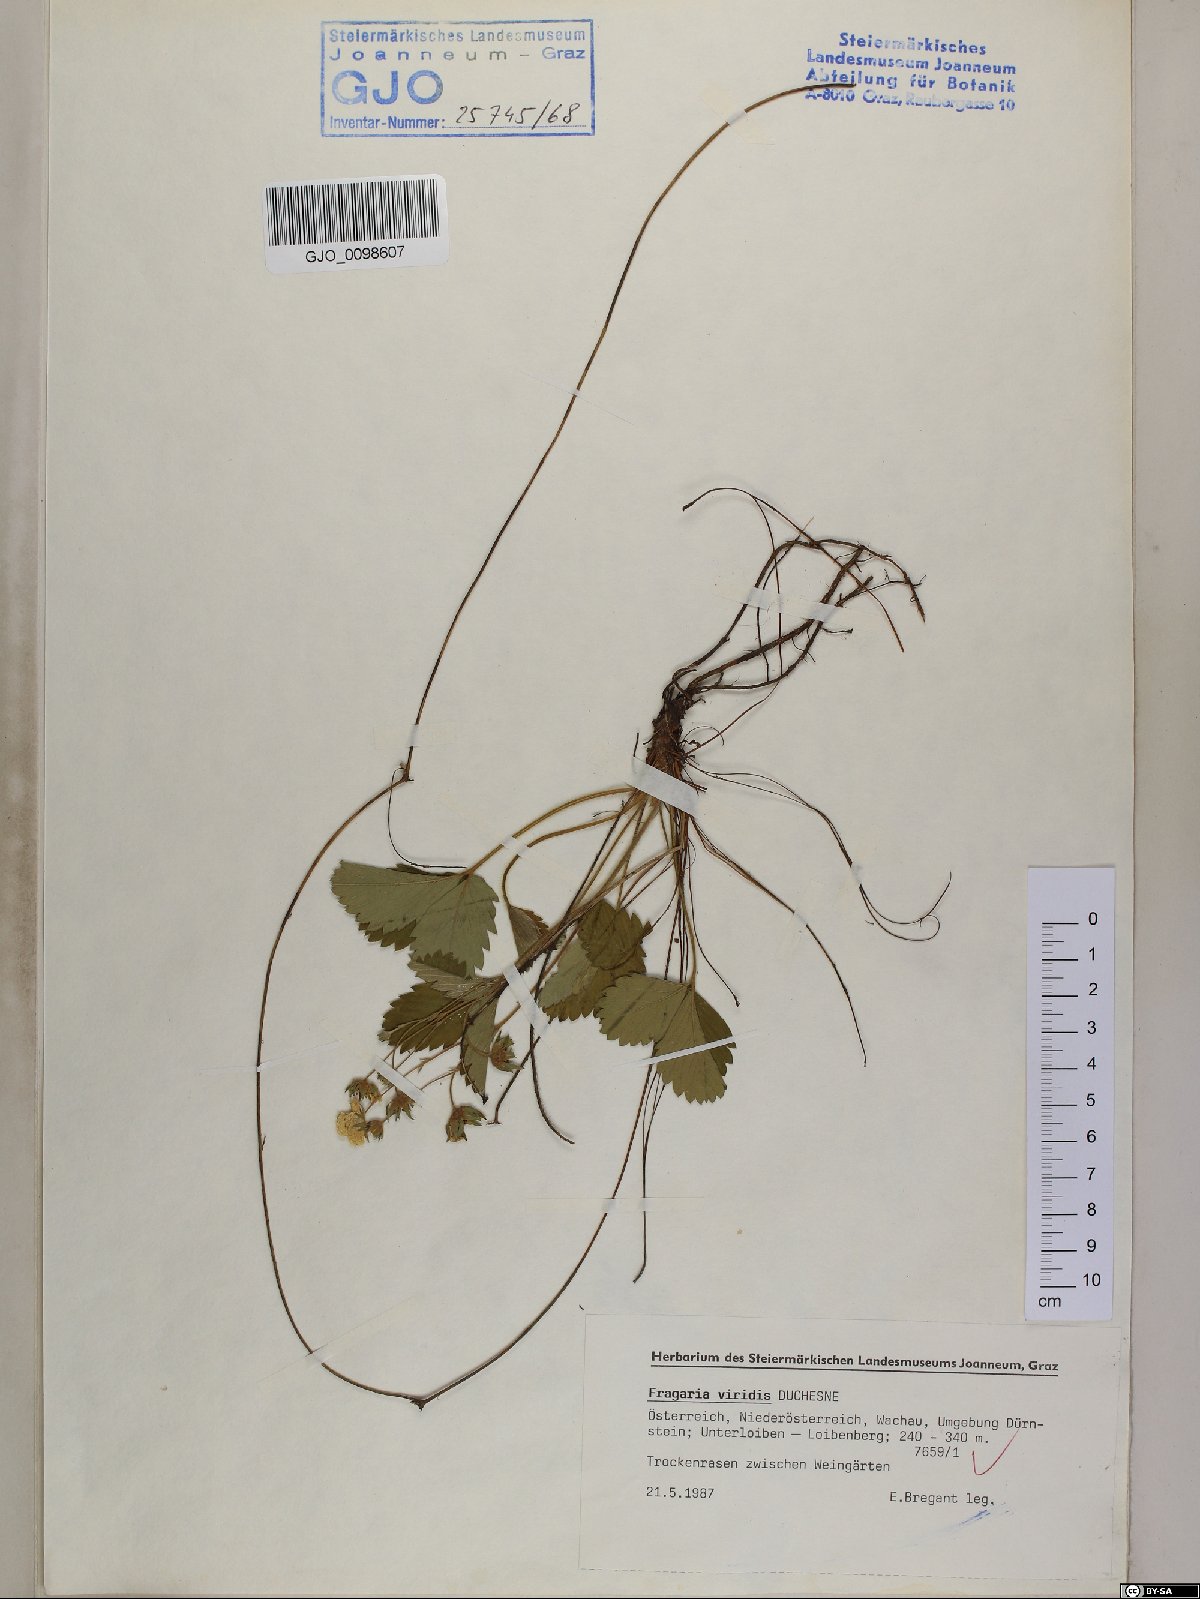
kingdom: Plantae
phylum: Tracheophyta
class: Magnoliopsida
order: Rosales
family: Rosaceae
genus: Fragaria
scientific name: Fragaria viridis
